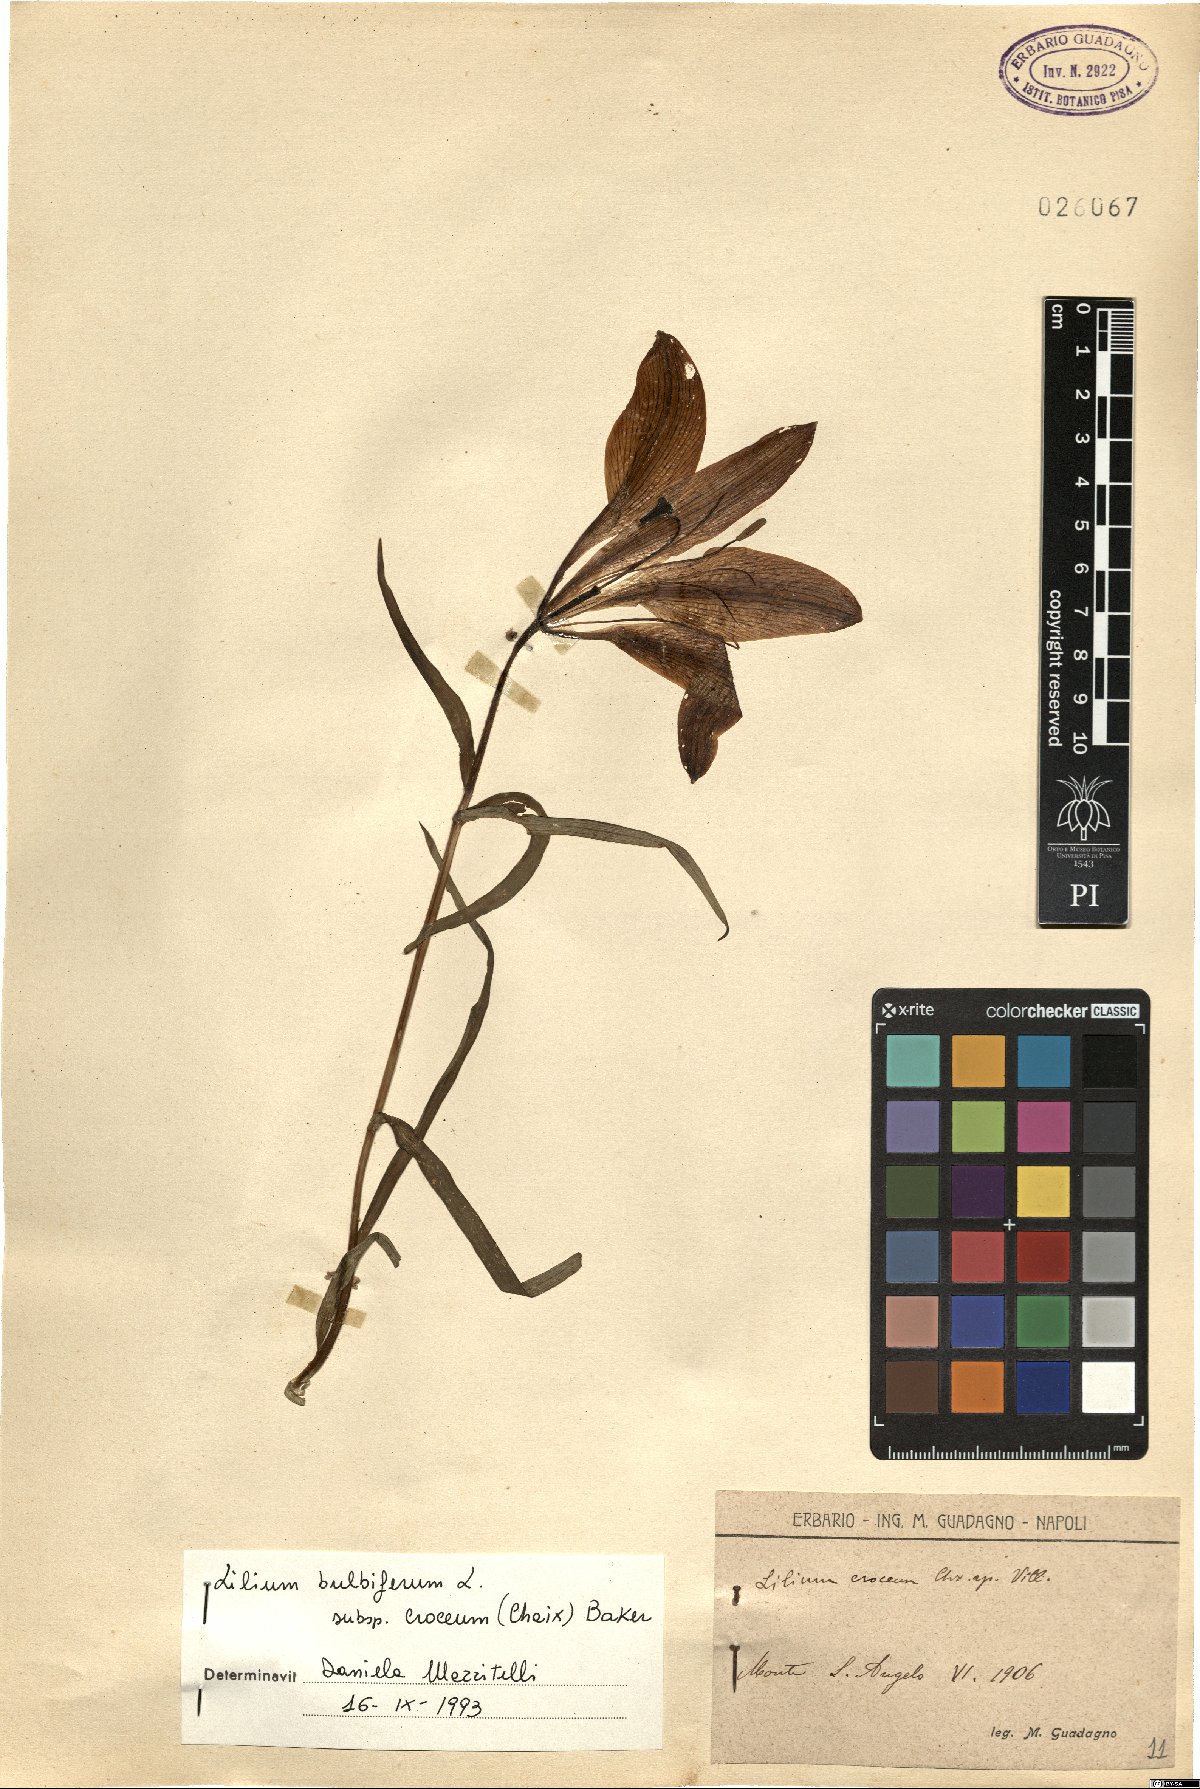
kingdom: Plantae
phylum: Tracheophyta
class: Liliopsida
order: Liliales
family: Liliaceae
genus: Lilium
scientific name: Lilium bulbiferum
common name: Orange lily
